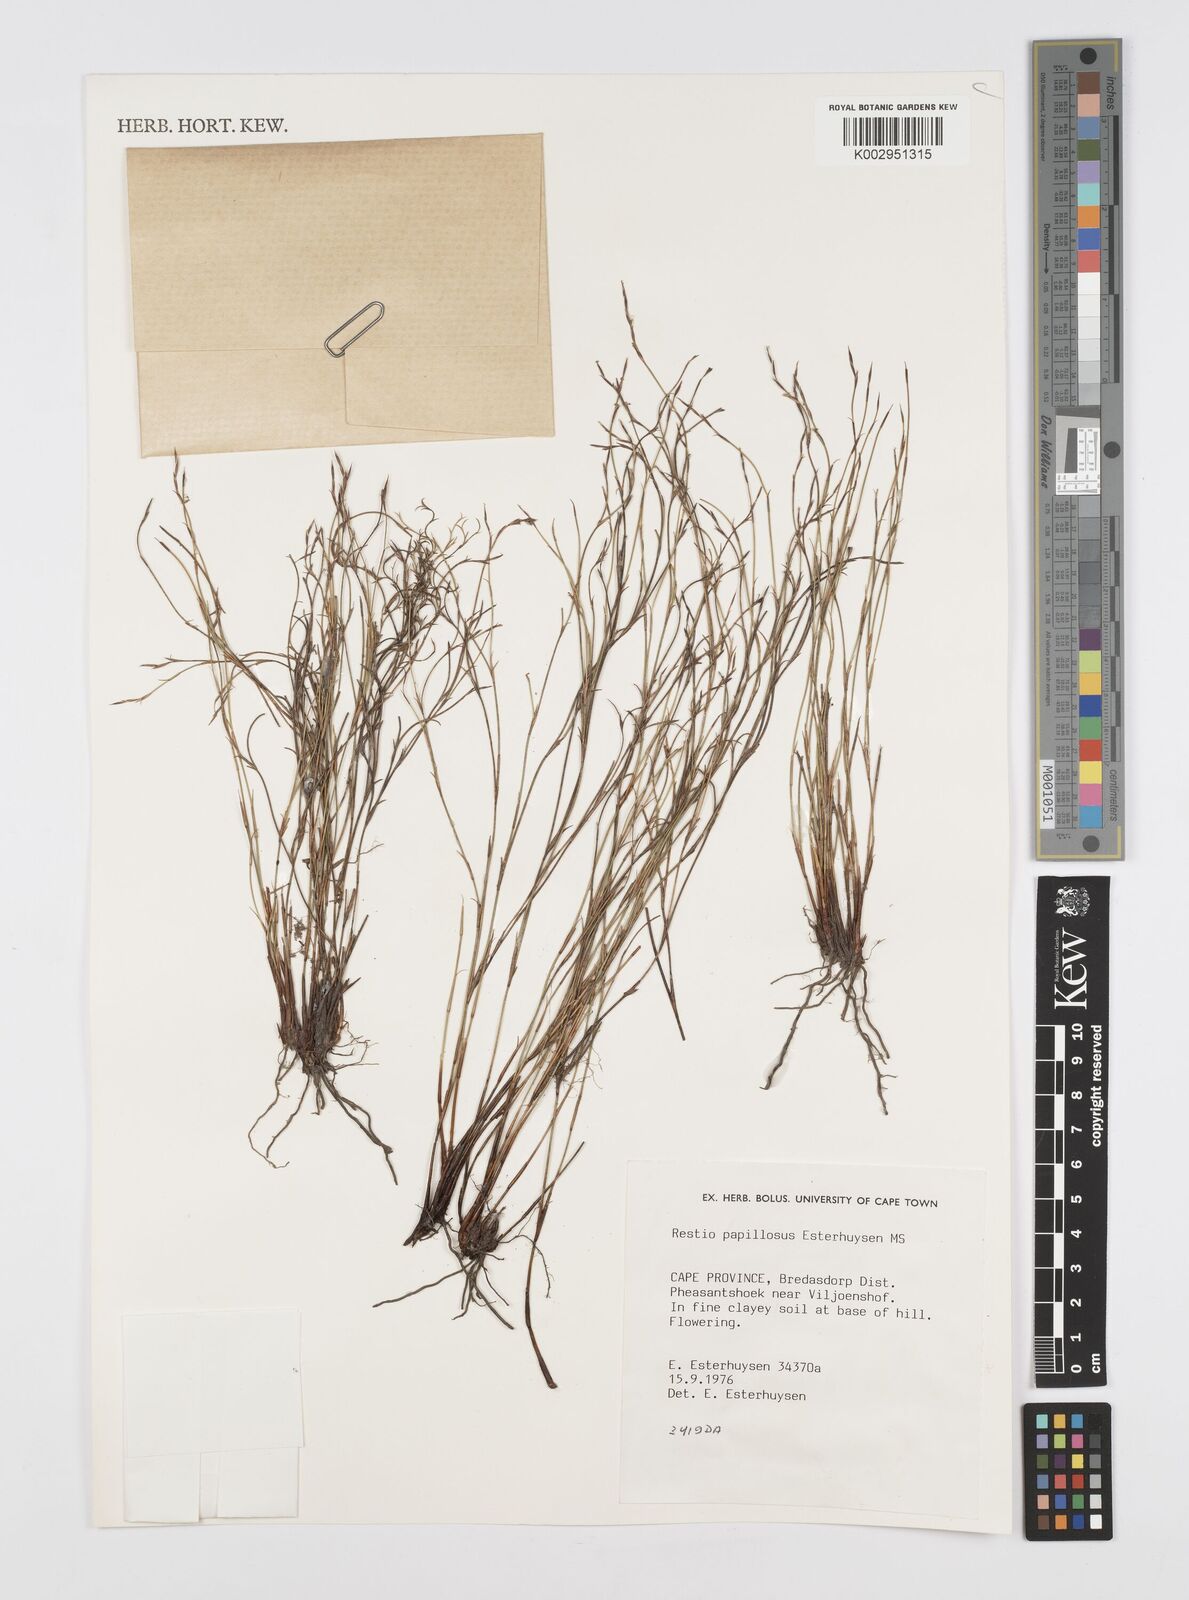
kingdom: Plantae
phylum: Tracheophyta
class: Liliopsida
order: Poales
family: Restionaceae
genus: Restio
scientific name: Restio papillosus
